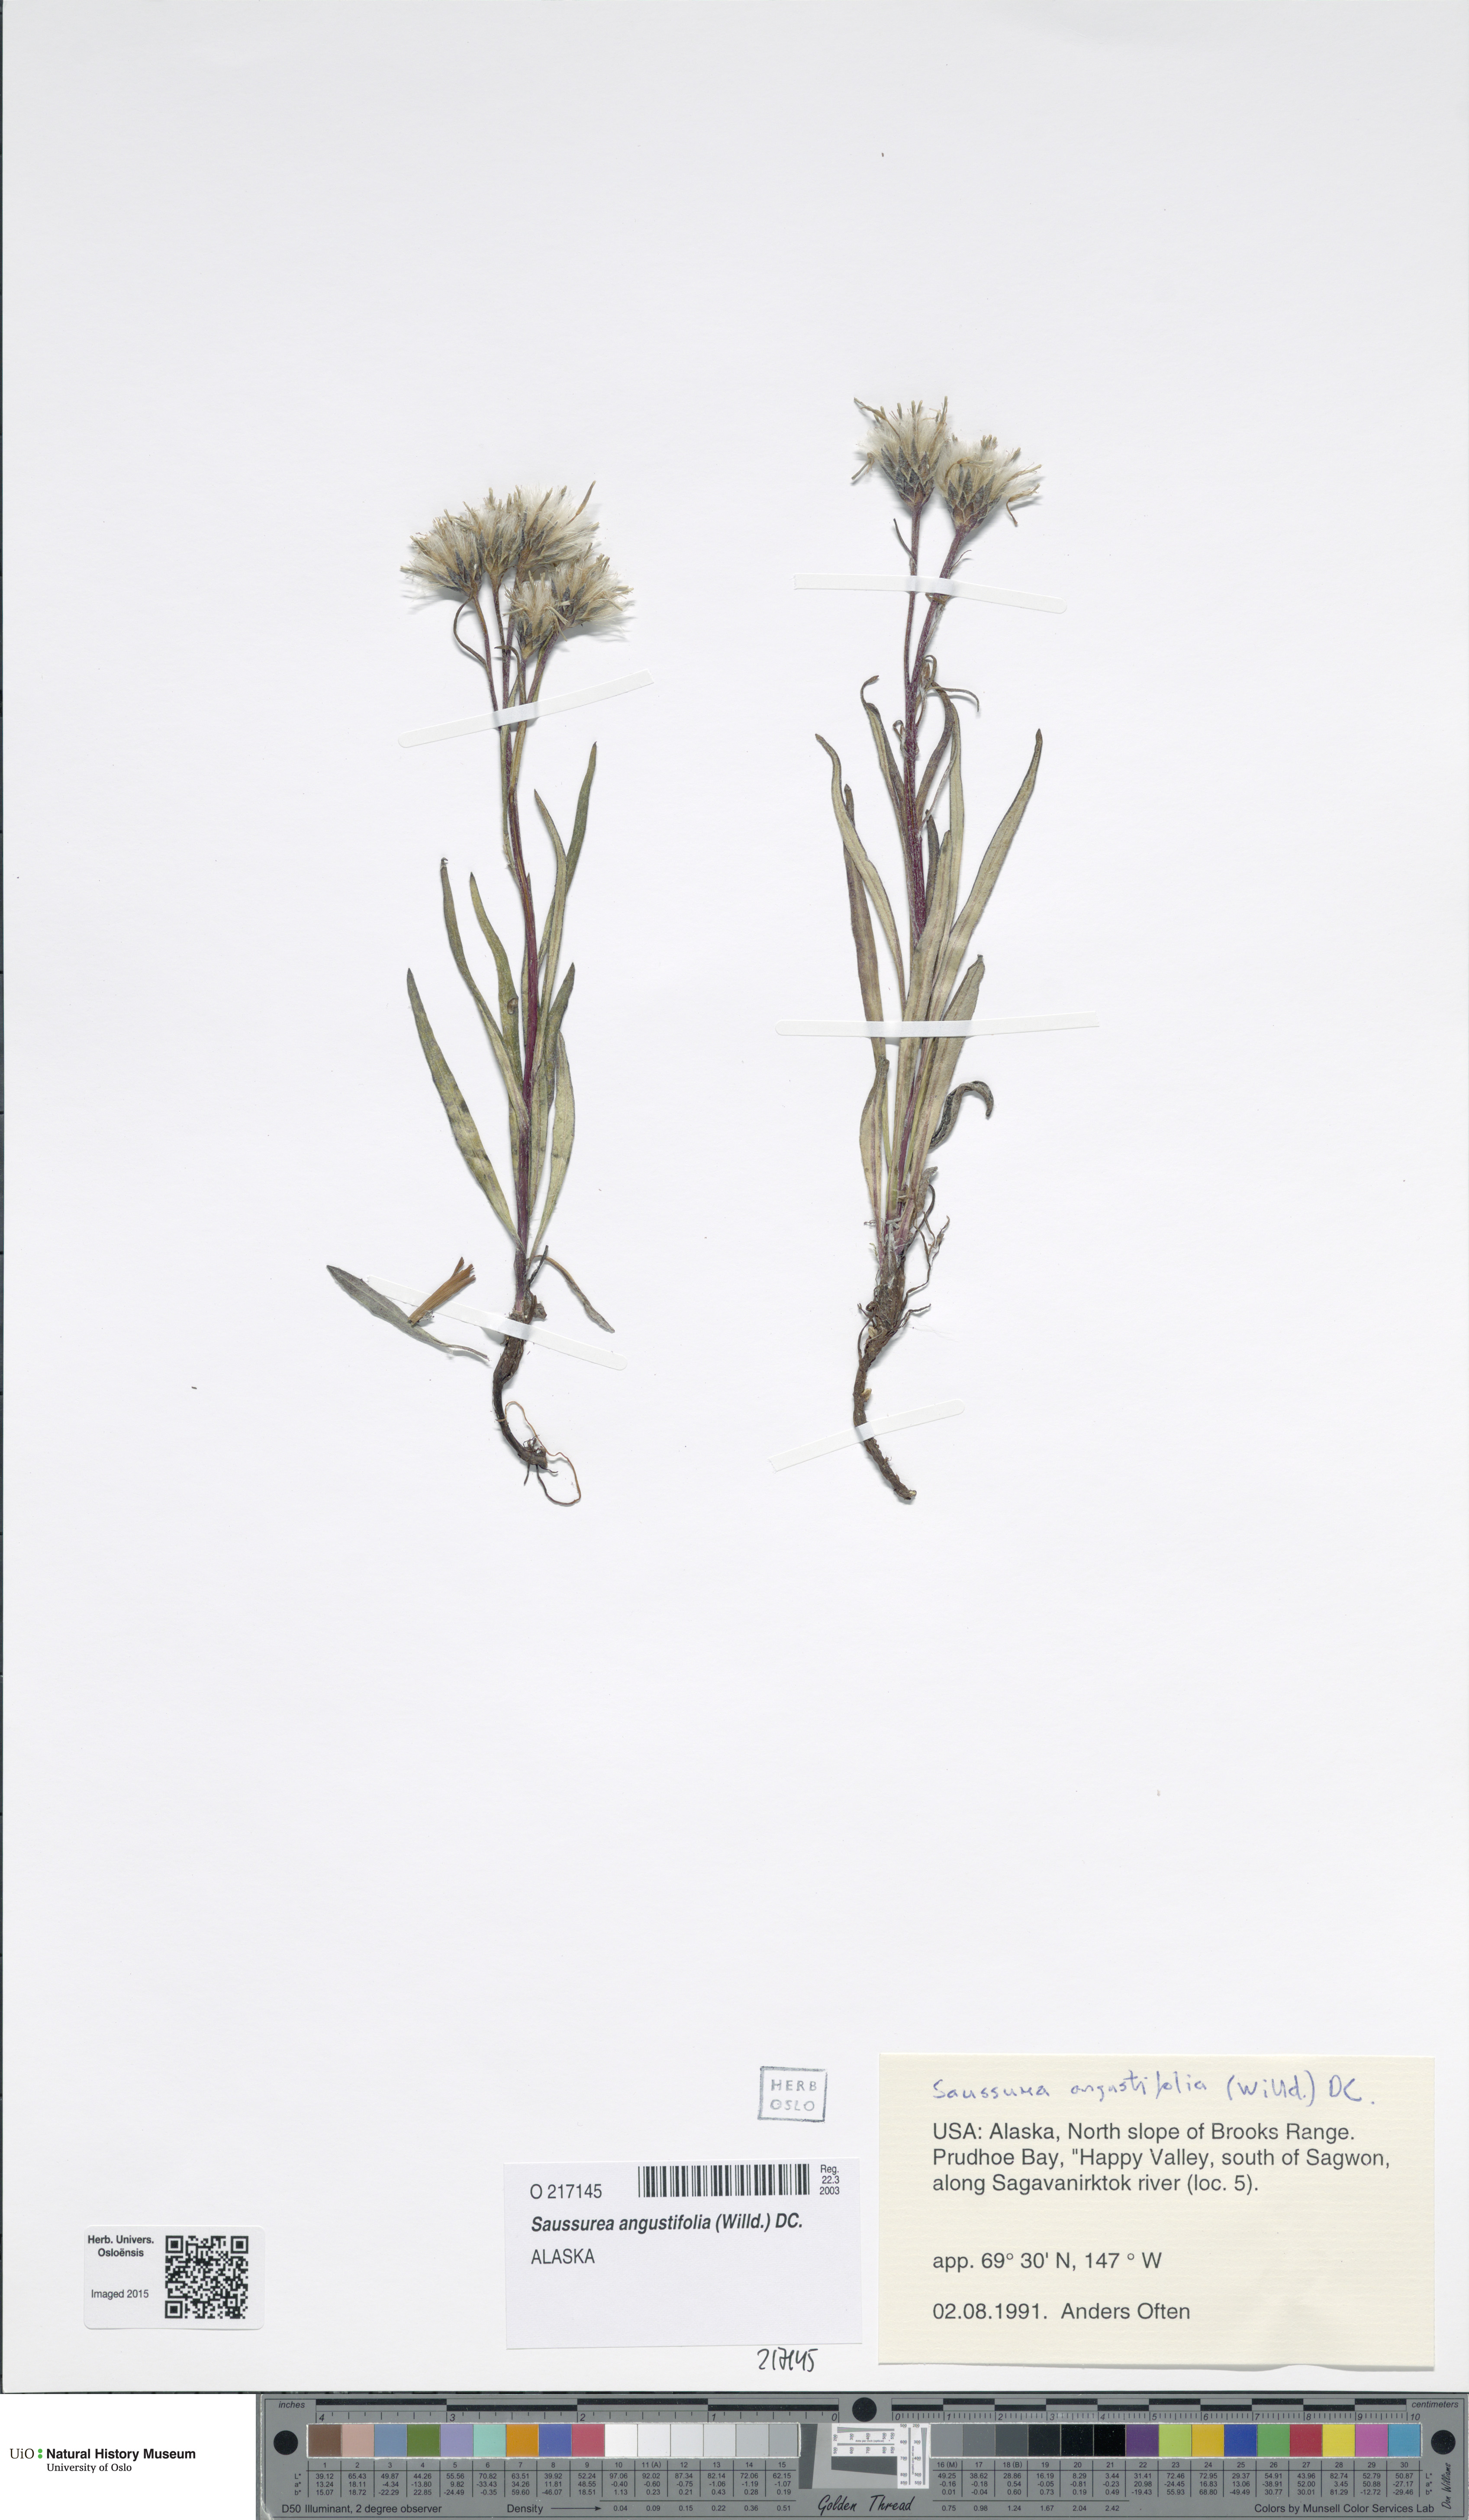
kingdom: Plantae
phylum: Tracheophyta
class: Magnoliopsida
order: Asterales
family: Asteraceae
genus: Saussurea
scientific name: Saussurea angustifolia
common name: Common saussurea
